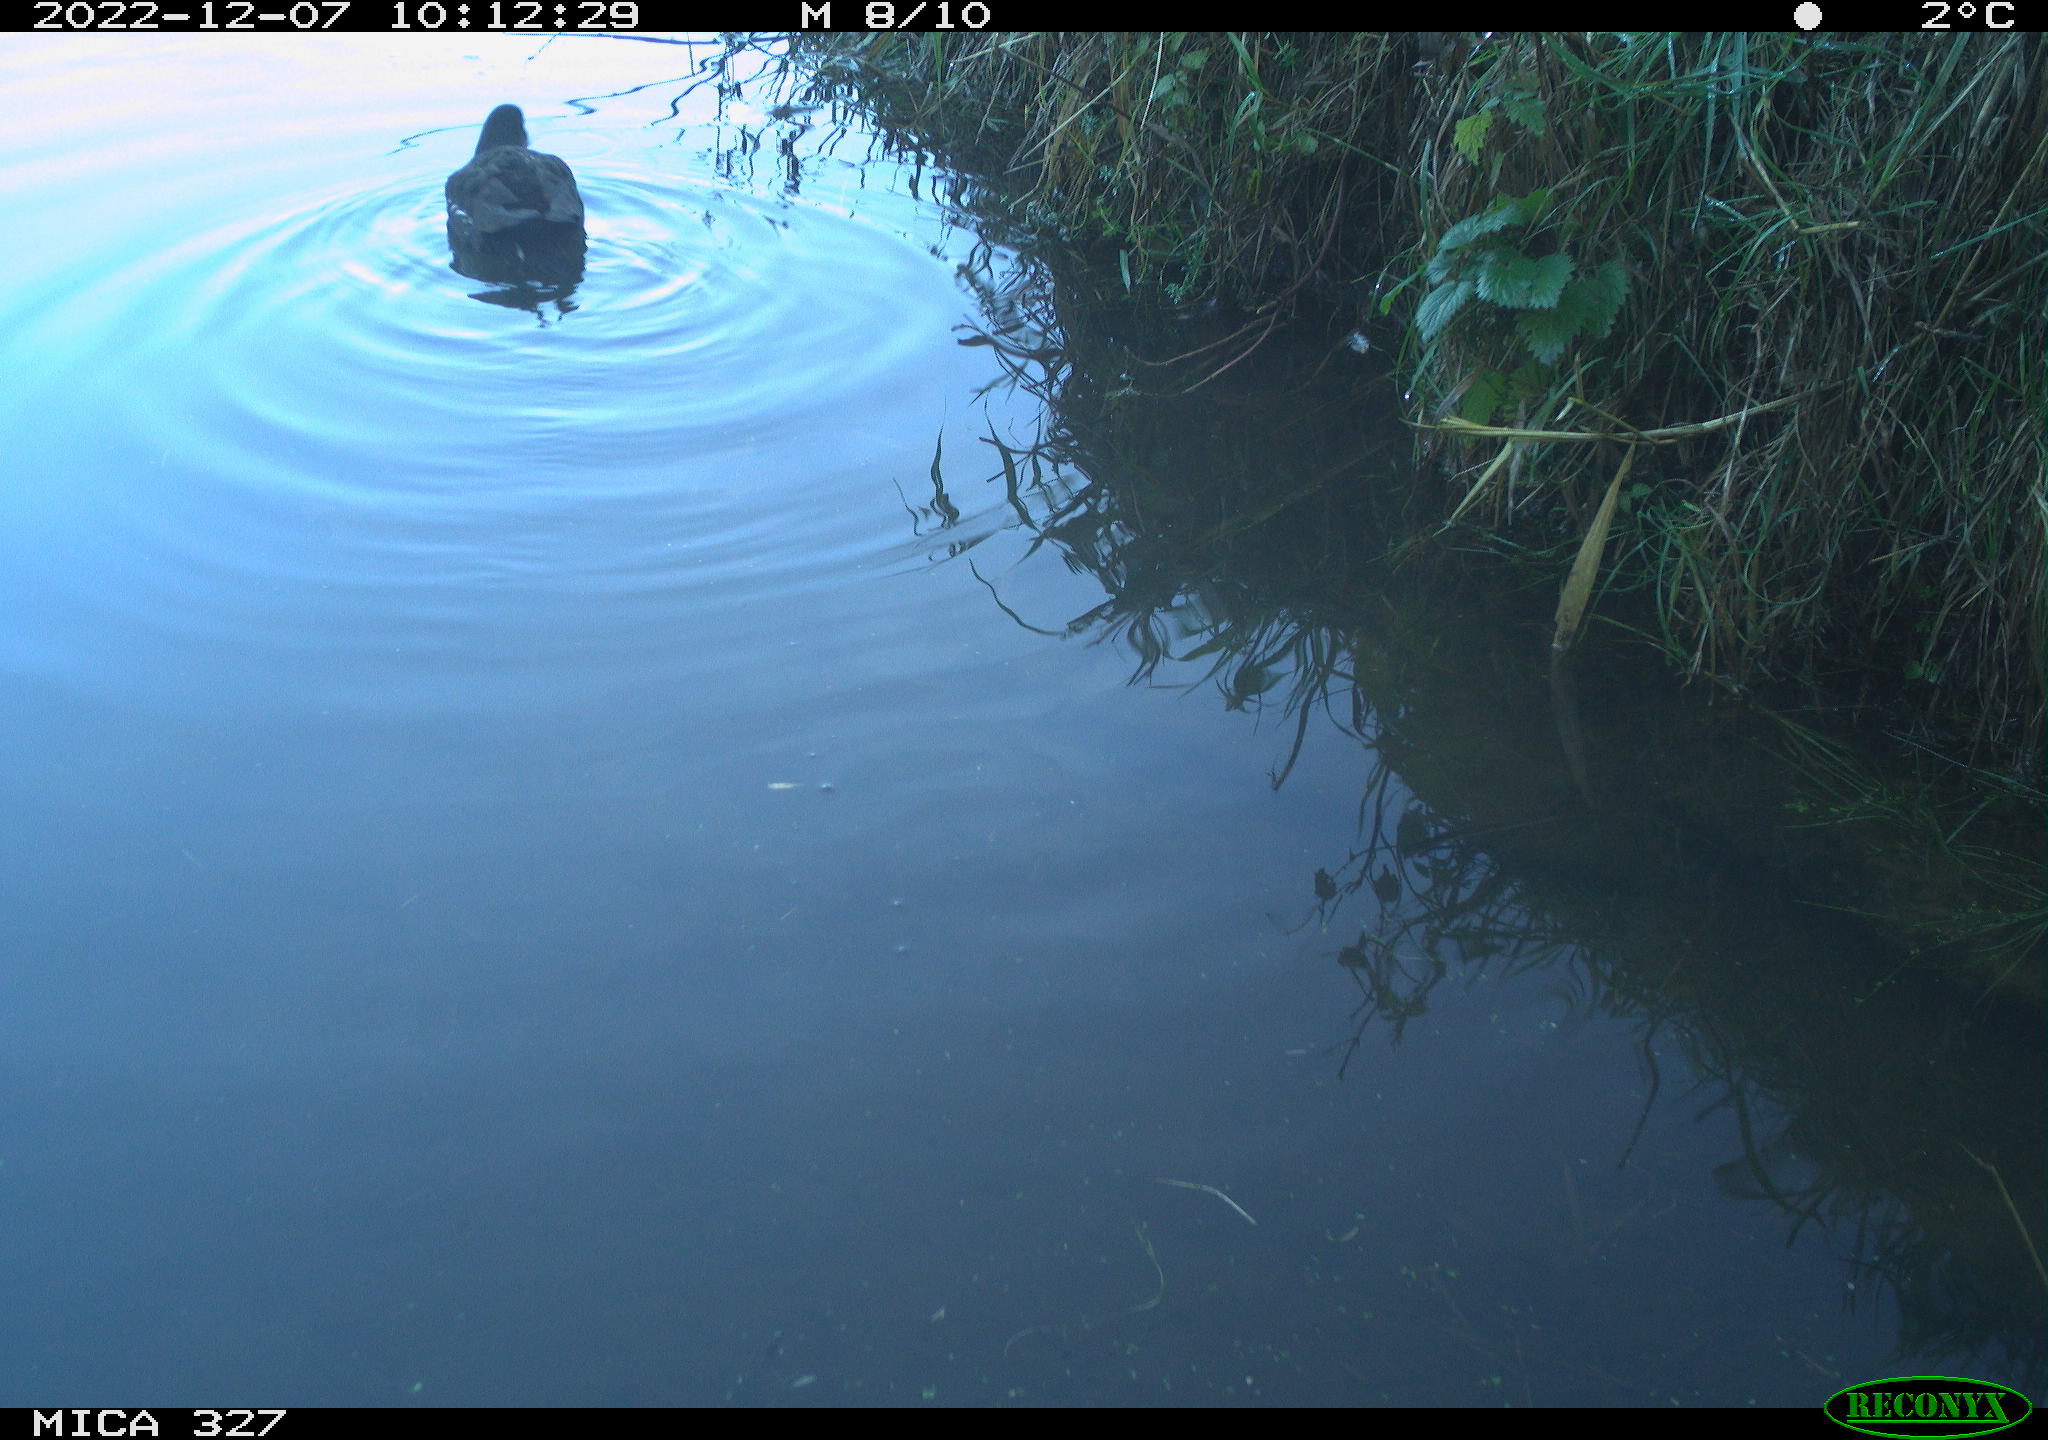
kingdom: Animalia
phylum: Chordata
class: Aves
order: Gruiformes
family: Rallidae
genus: Gallinula
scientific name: Gallinula chloropus
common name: Common moorhen
